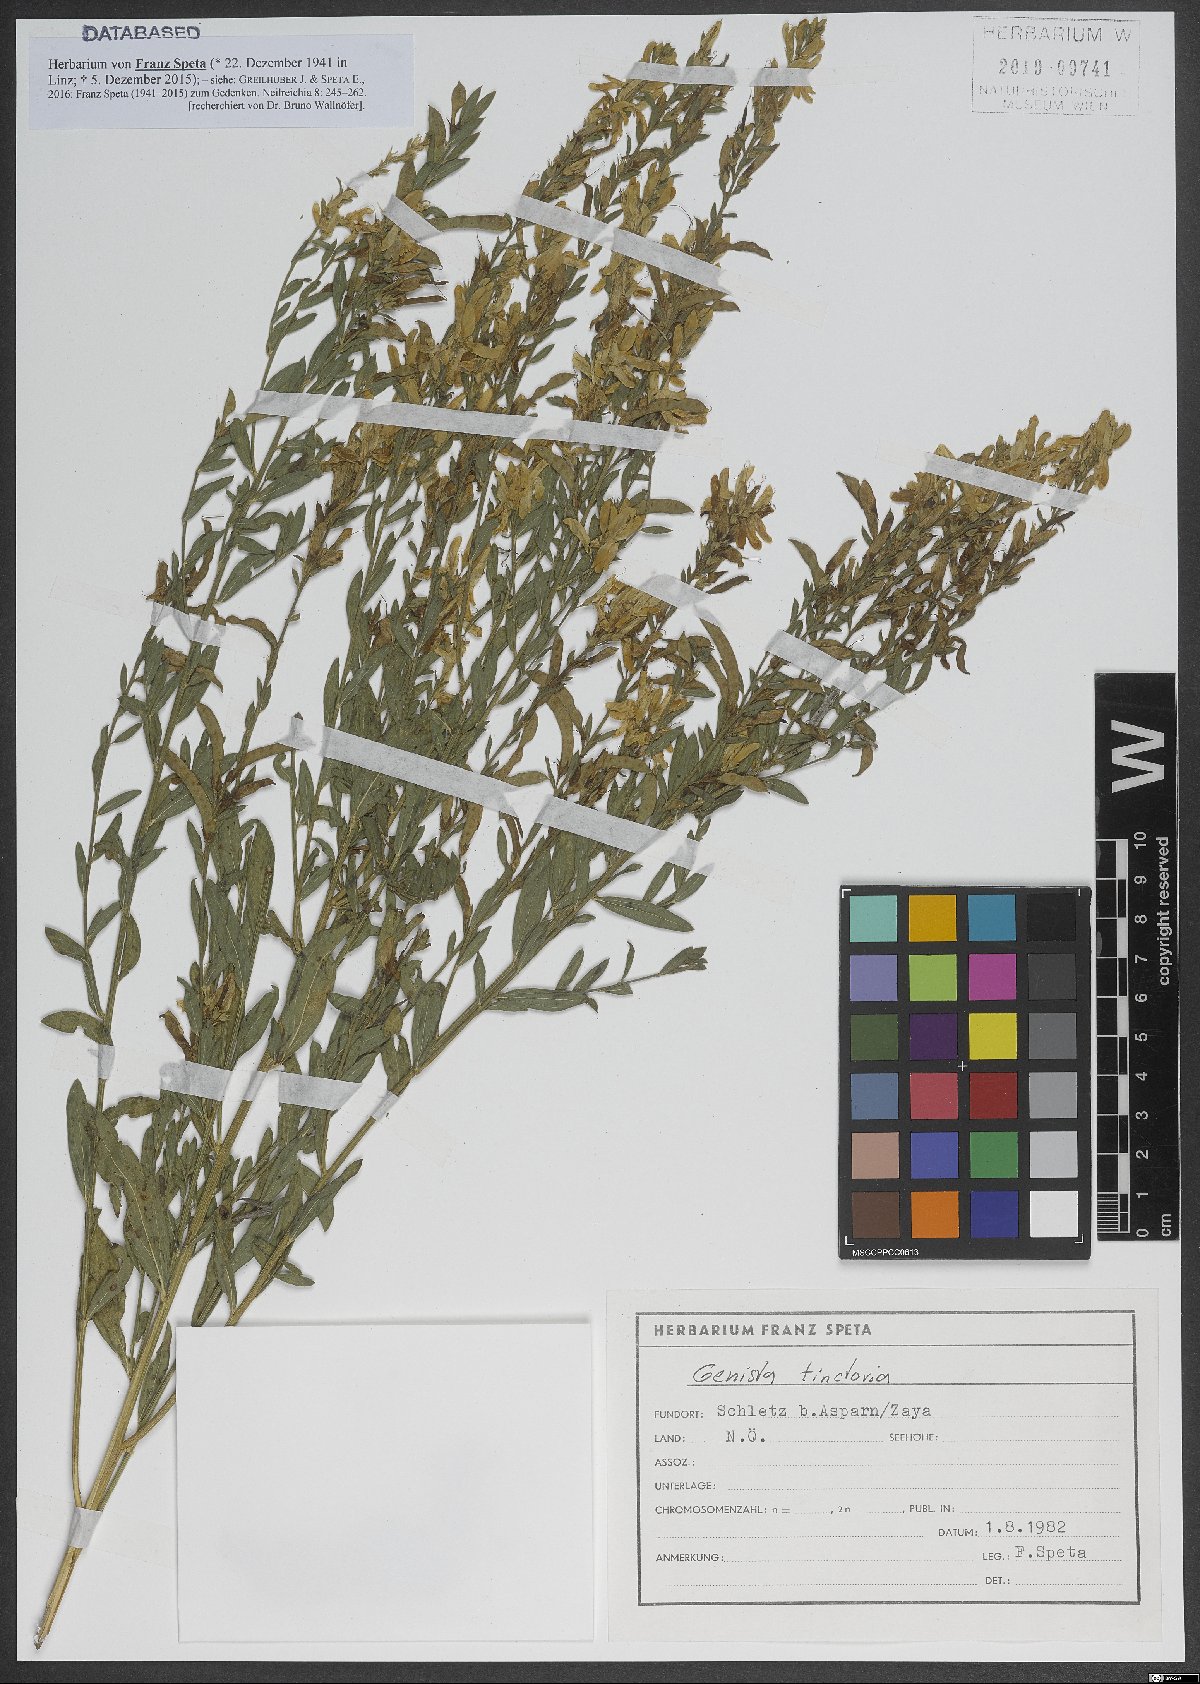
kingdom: Plantae
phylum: Tracheophyta
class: Magnoliopsida
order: Fabales
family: Fabaceae
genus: Genista
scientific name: Genista tinctoria
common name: Dyer's greenweed
